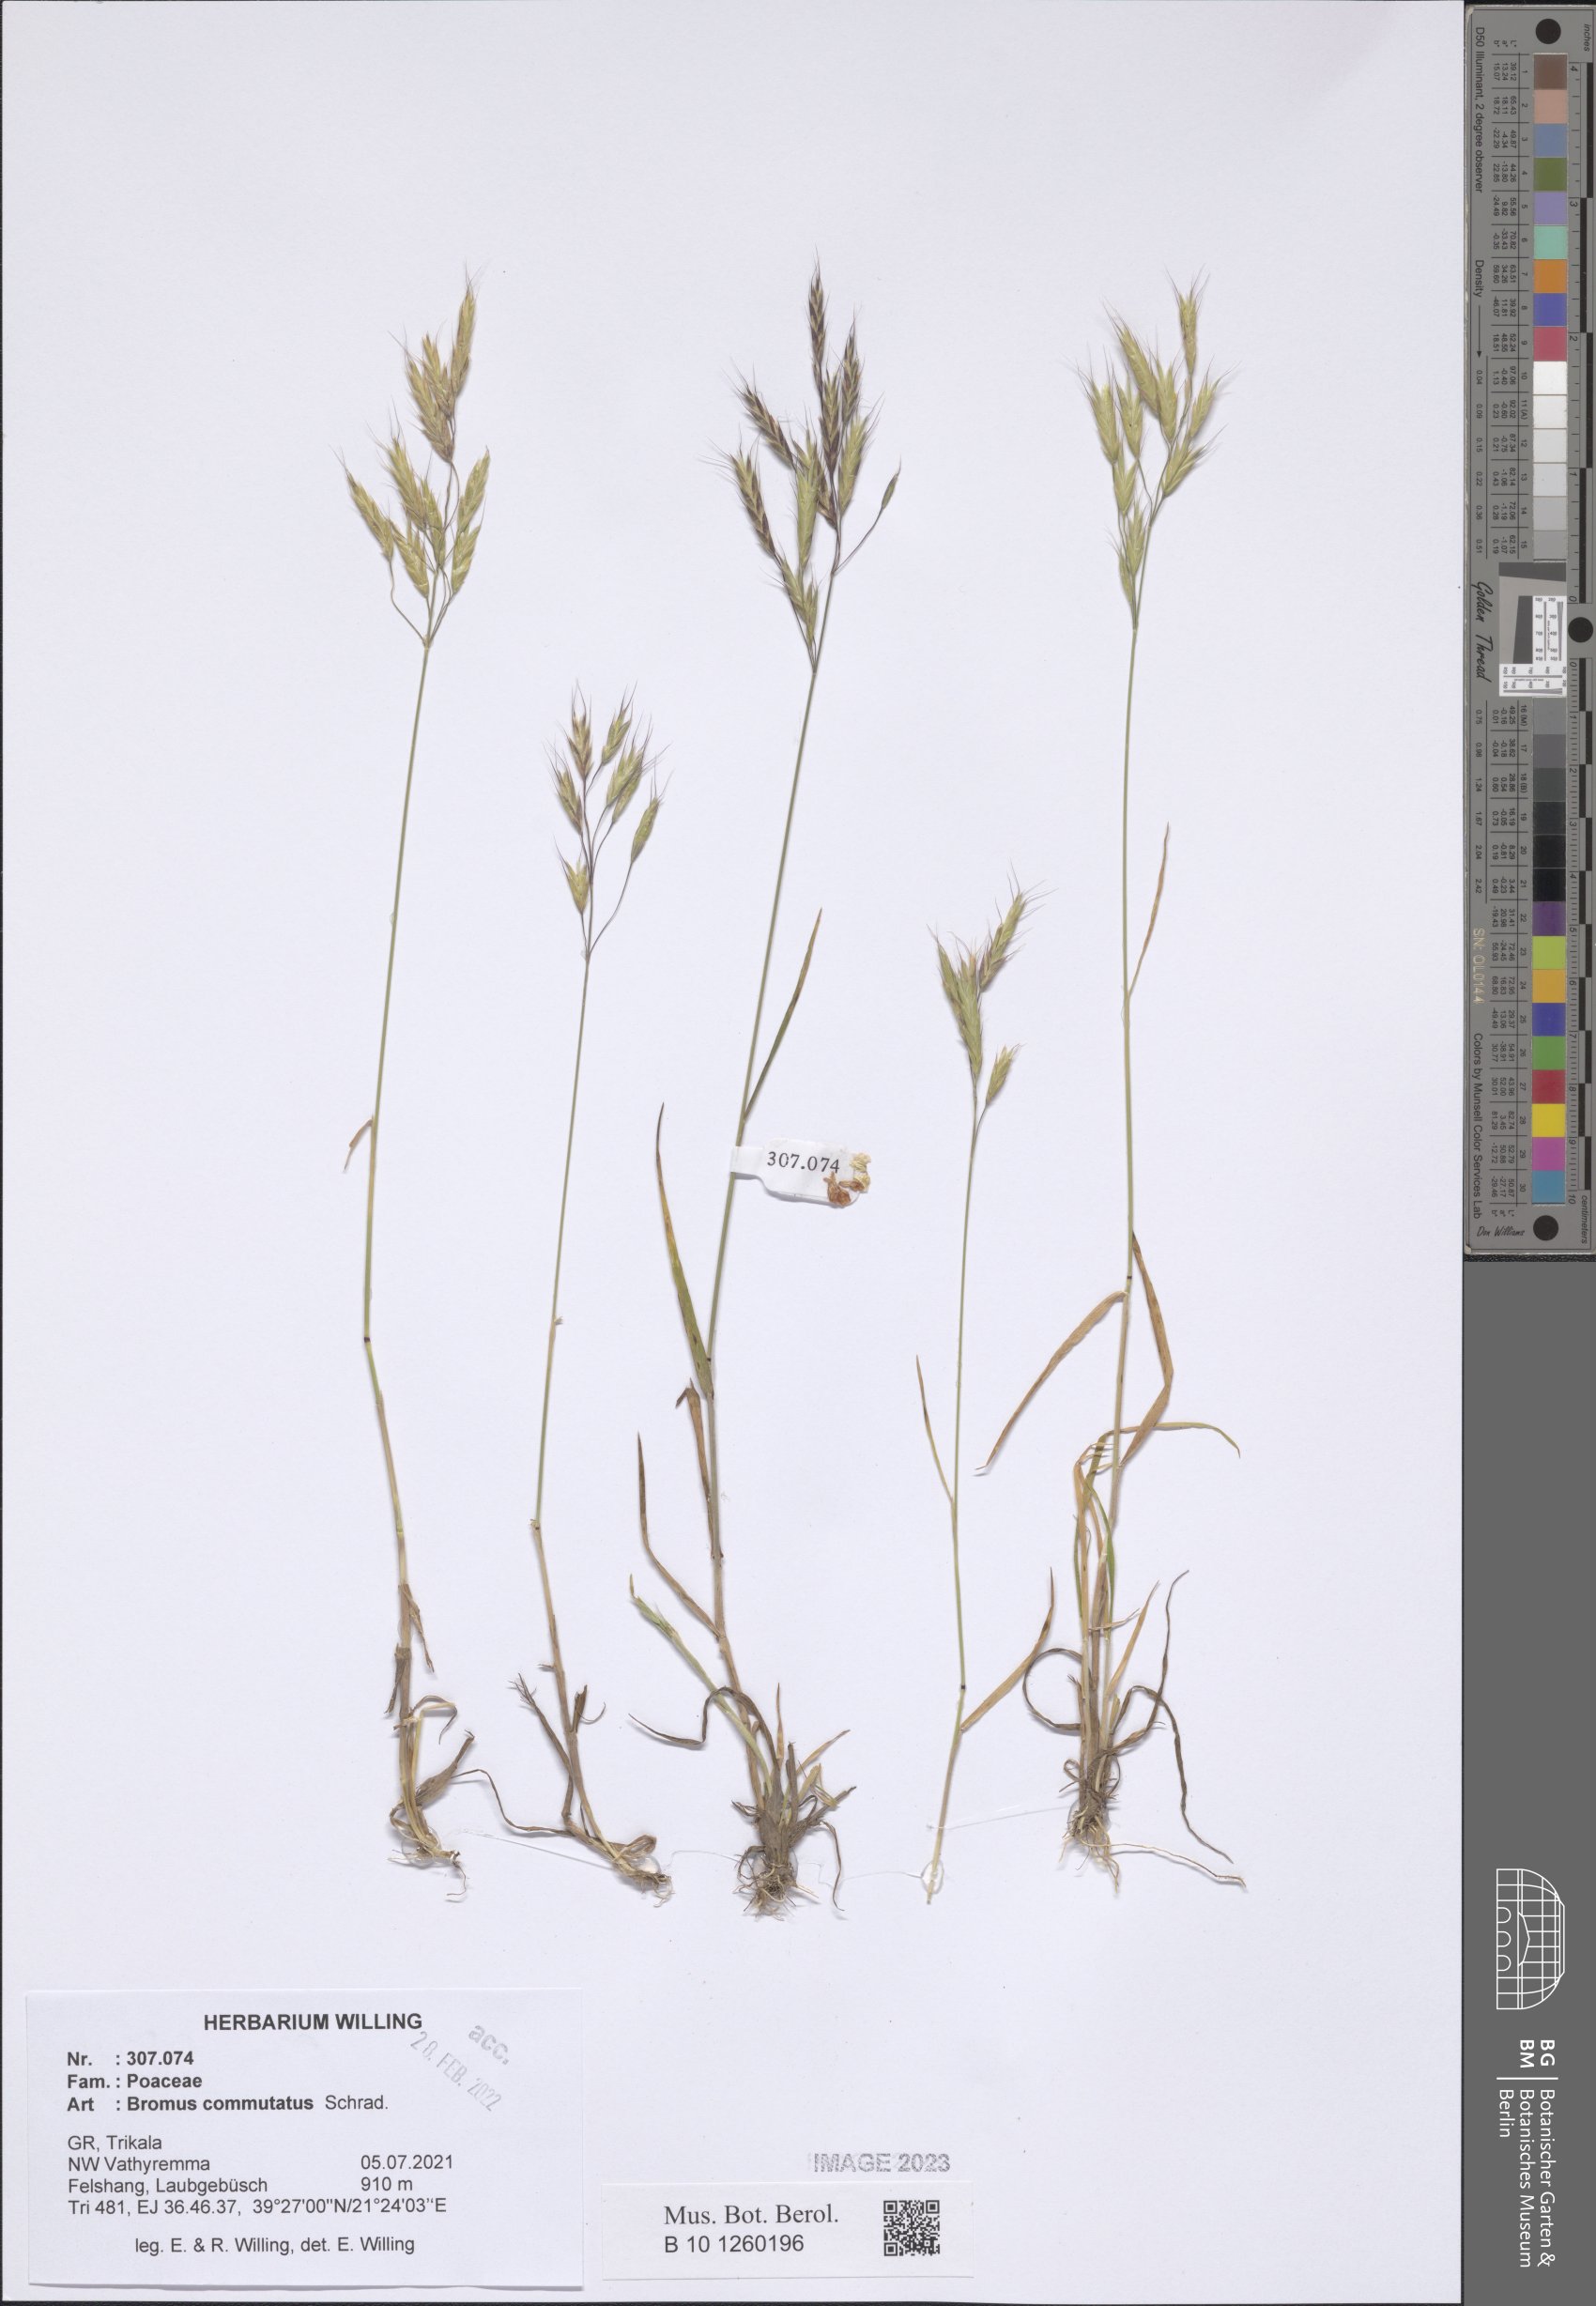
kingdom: Plantae
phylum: Tracheophyta
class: Liliopsida
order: Poales
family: Poaceae
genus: Bromus
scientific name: Bromus commutatus
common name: Meadow brome
